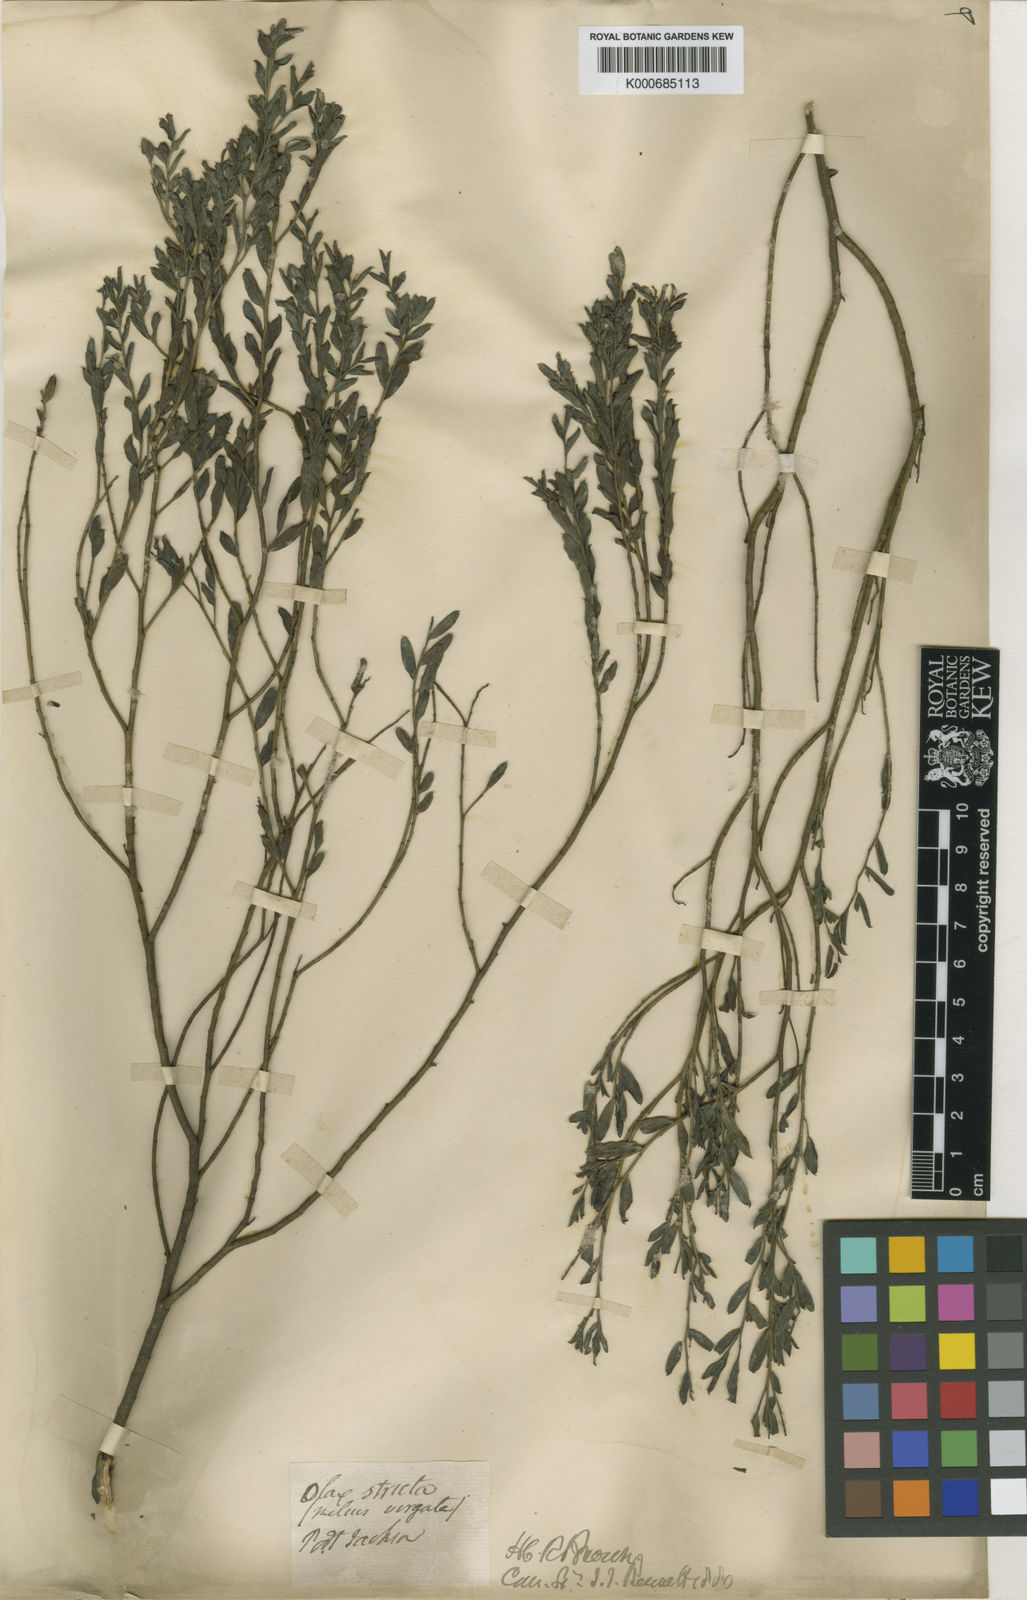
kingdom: Plantae
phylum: Tracheophyta
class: Magnoliopsida
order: Santalales
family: Olacaceae
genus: Olax
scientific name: Olax stricta
